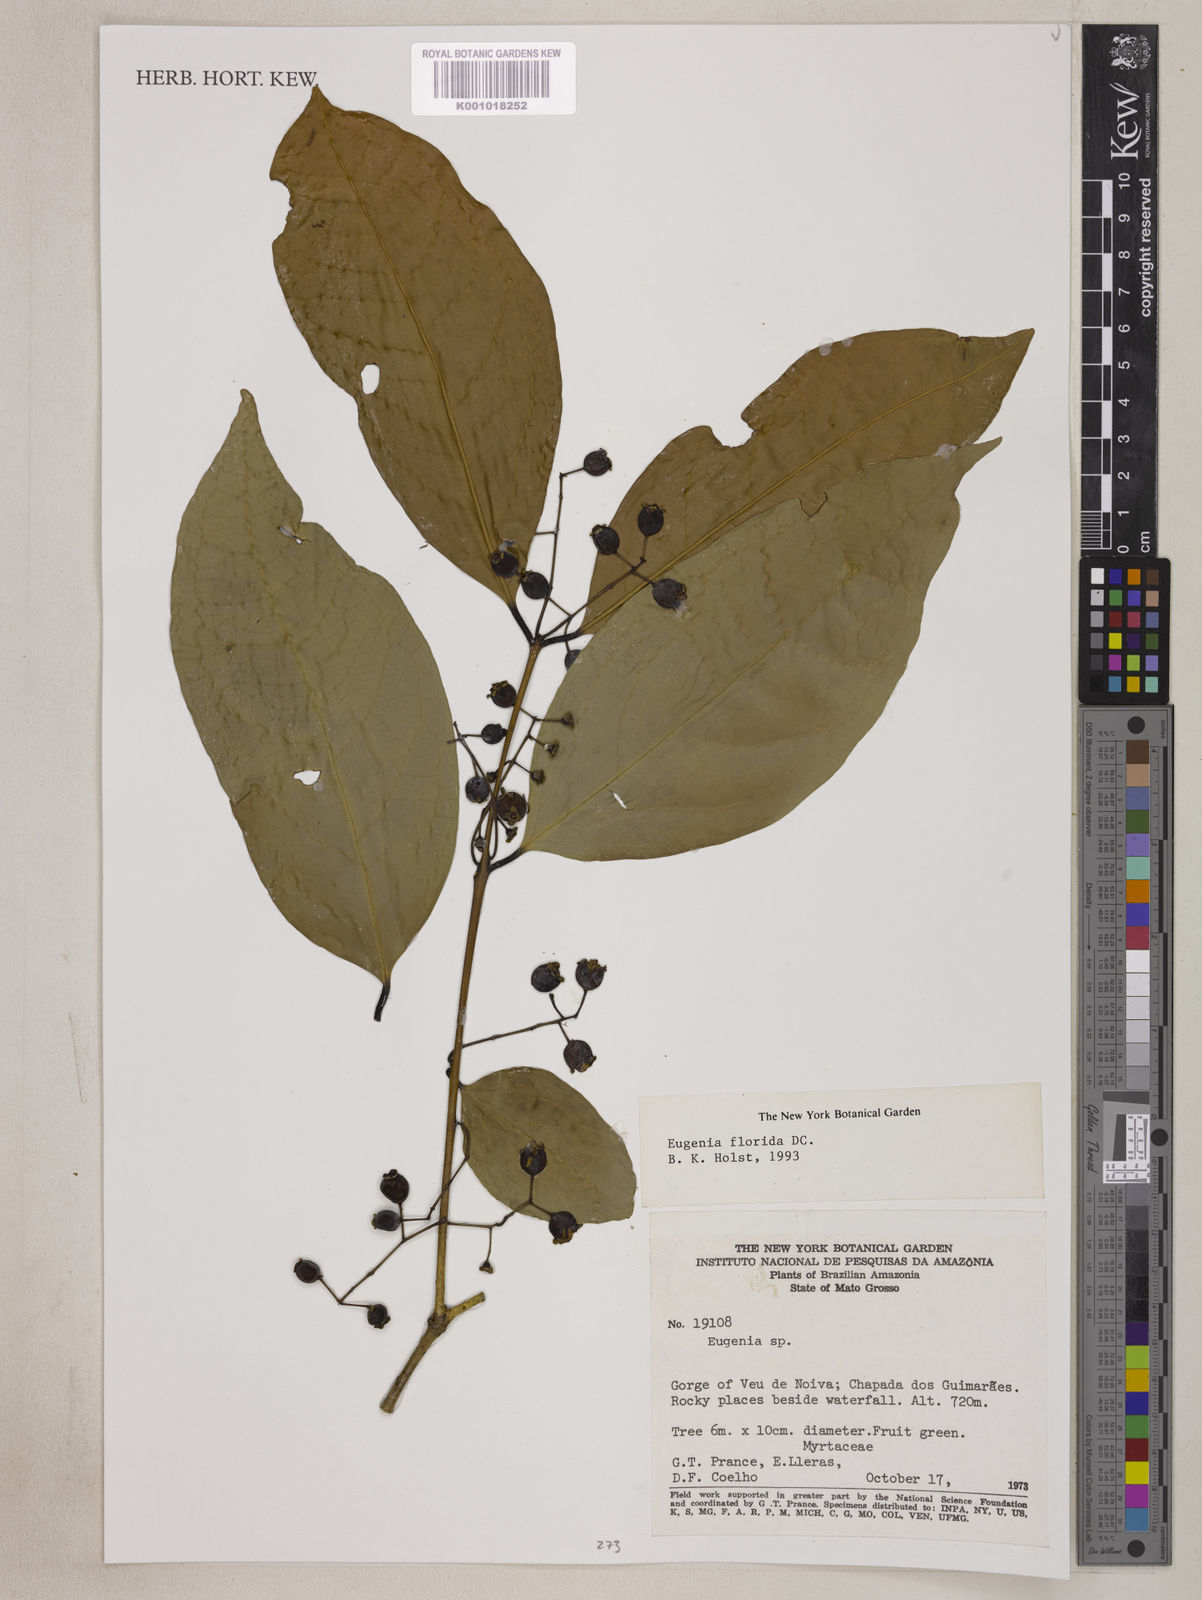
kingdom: Plantae
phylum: Tracheophyta
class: Magnoliopsida
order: Myrtales
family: Myrtaceae
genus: Eugenia
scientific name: Eugenia florida
